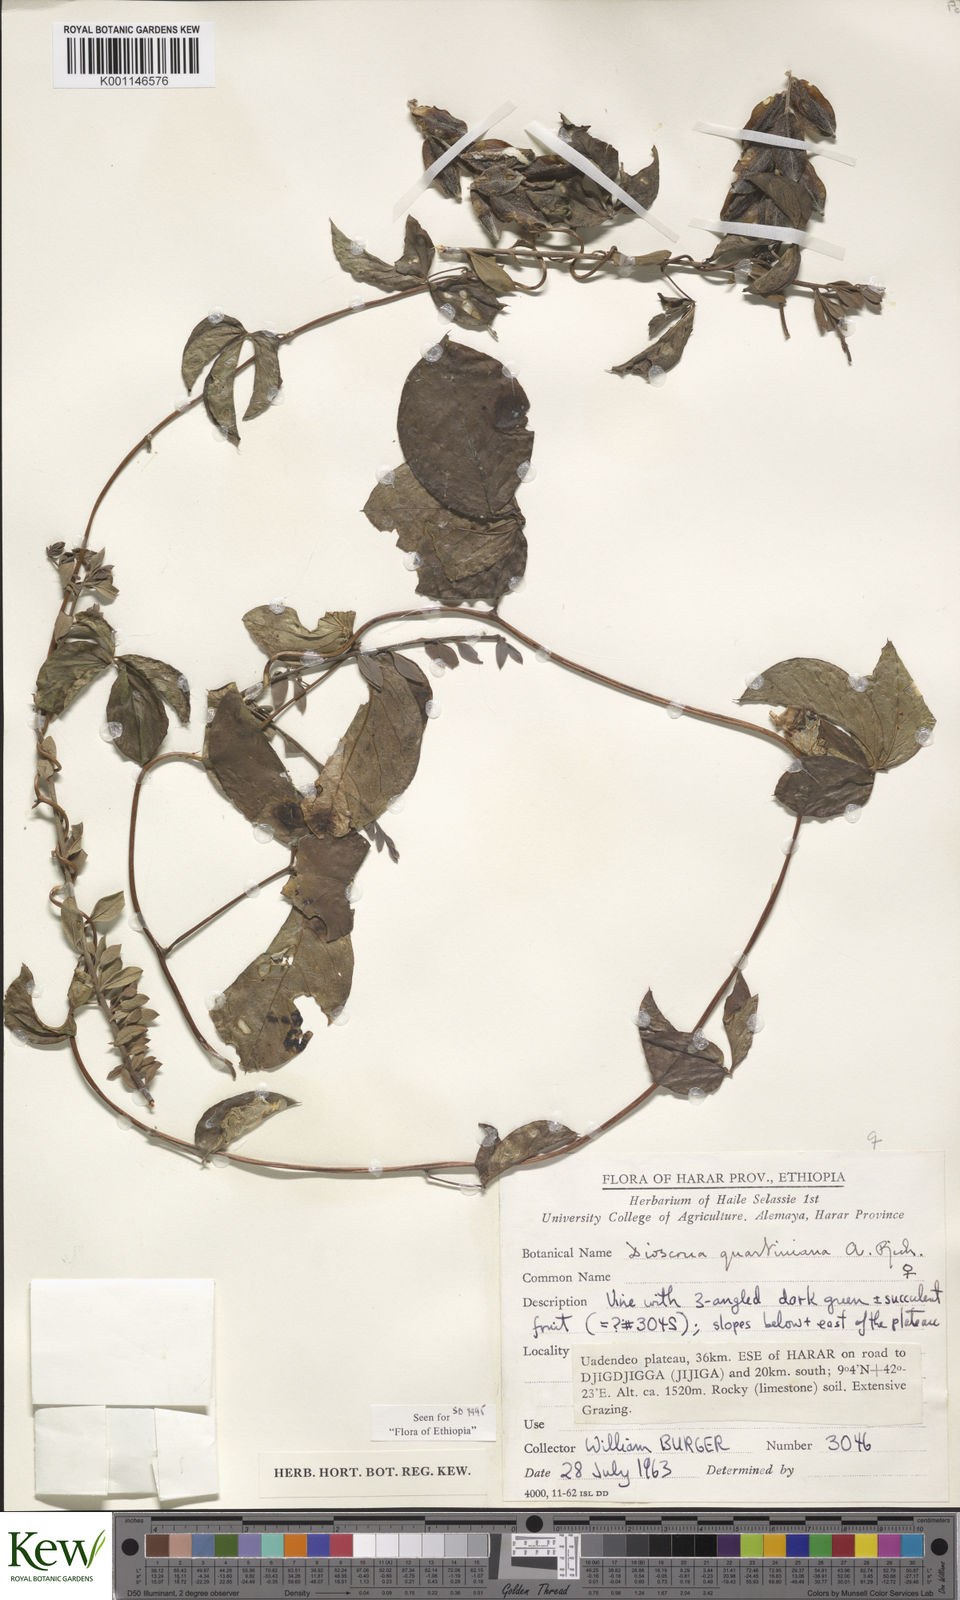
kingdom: Plantae
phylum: Tracheophyta
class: Liliopsida
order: Dioscoreales
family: Dioscoreaceae
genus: Dioscorea
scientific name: Dioscorea quartiniana
